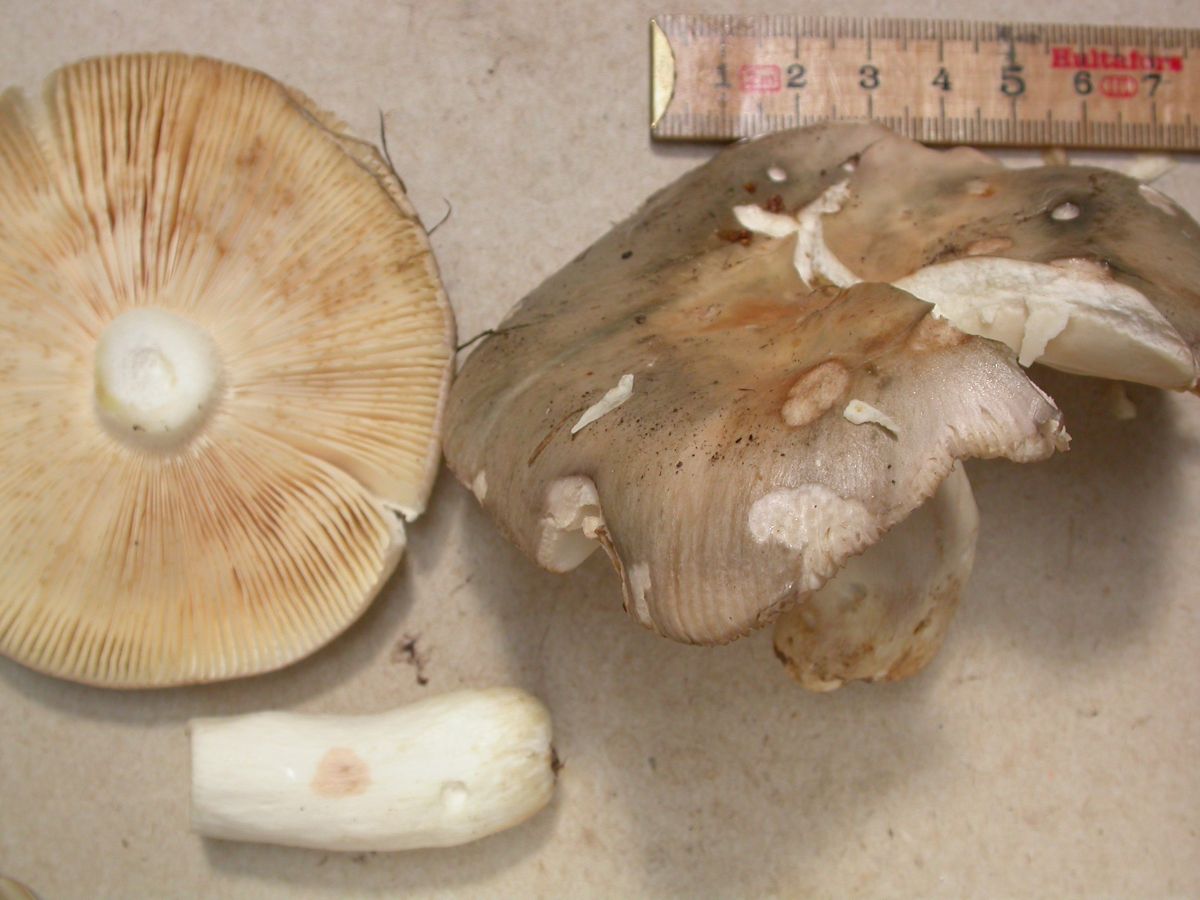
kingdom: Fungi
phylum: Basidiomycota
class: Agaricomycetes
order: Russulales
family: Russulaceae
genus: Russula
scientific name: Russula stenotricha
